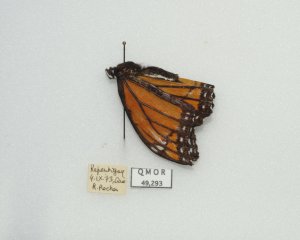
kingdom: Animalia
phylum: Arthropoda
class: Insecta
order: Lepidoptera
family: Nymphalidae
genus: Limenitis
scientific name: Limenitis archippus
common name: Viceroy
